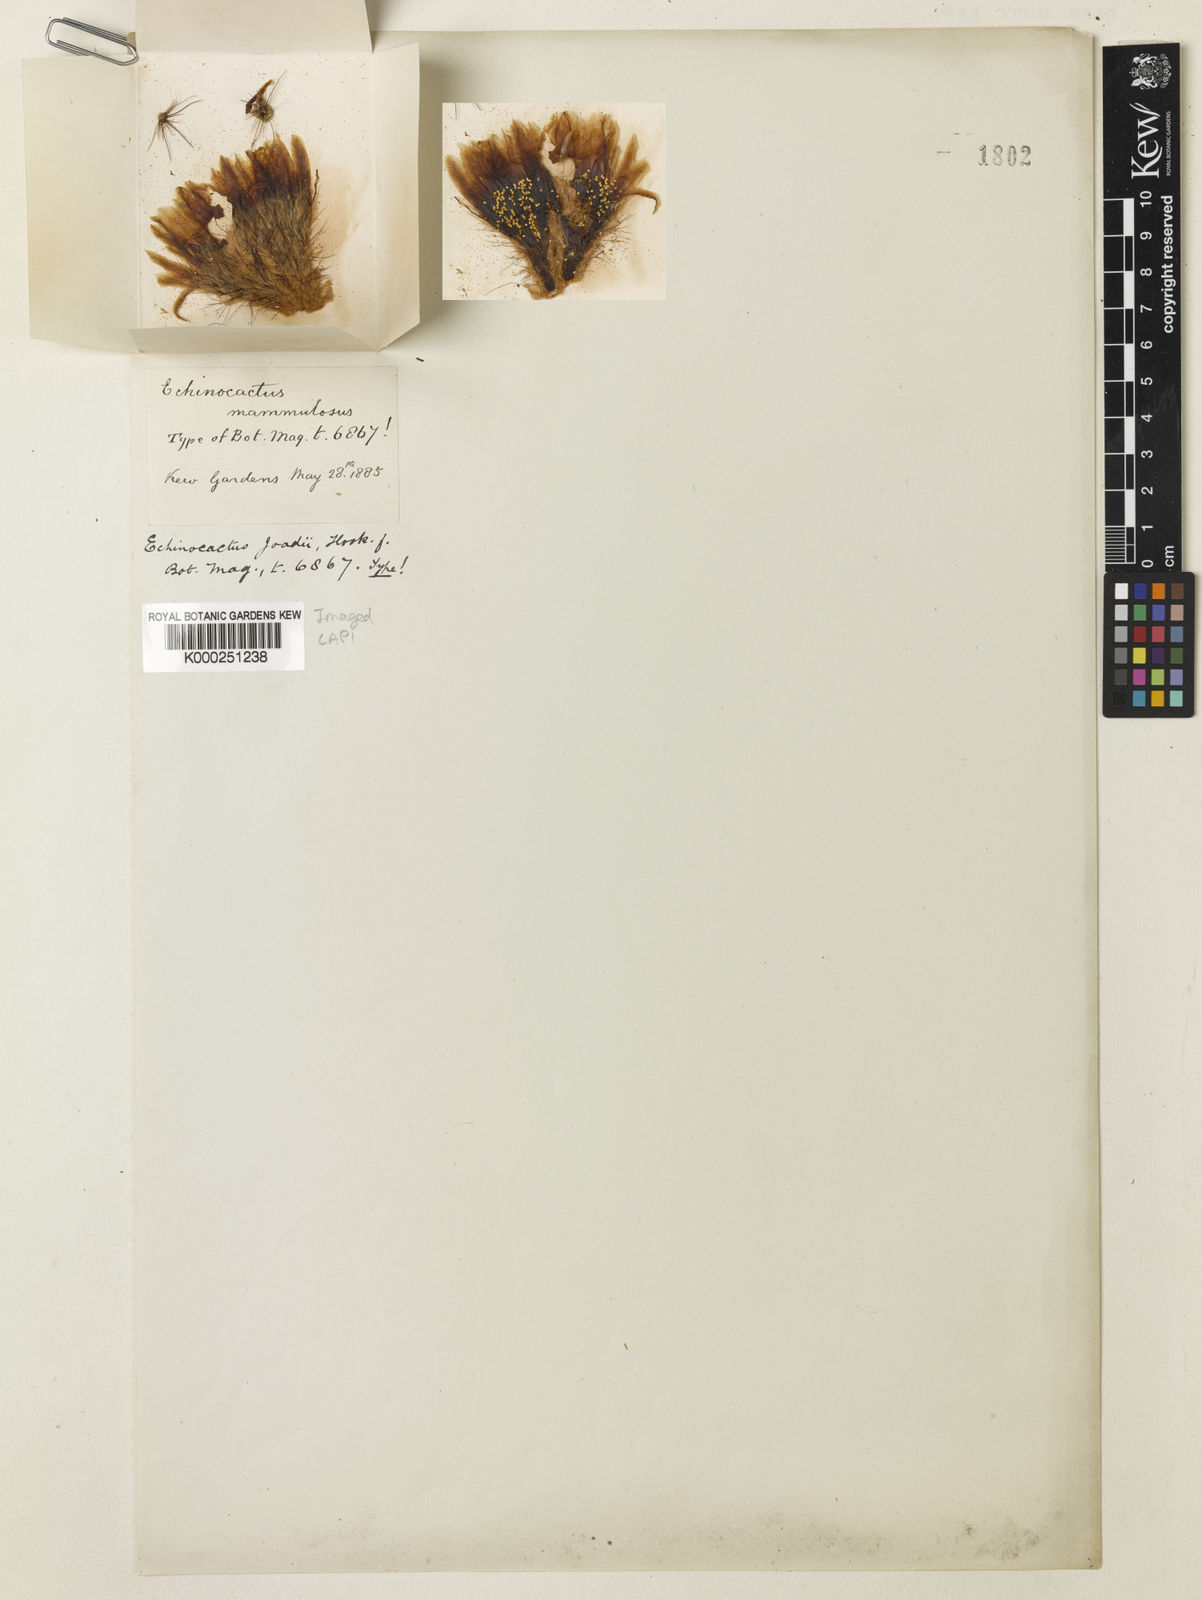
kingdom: Plantae
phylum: Tracheophyta
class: Magnoliopsida
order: Caryophyllales
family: Cactaceae
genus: Parodia
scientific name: Parodia concinna
